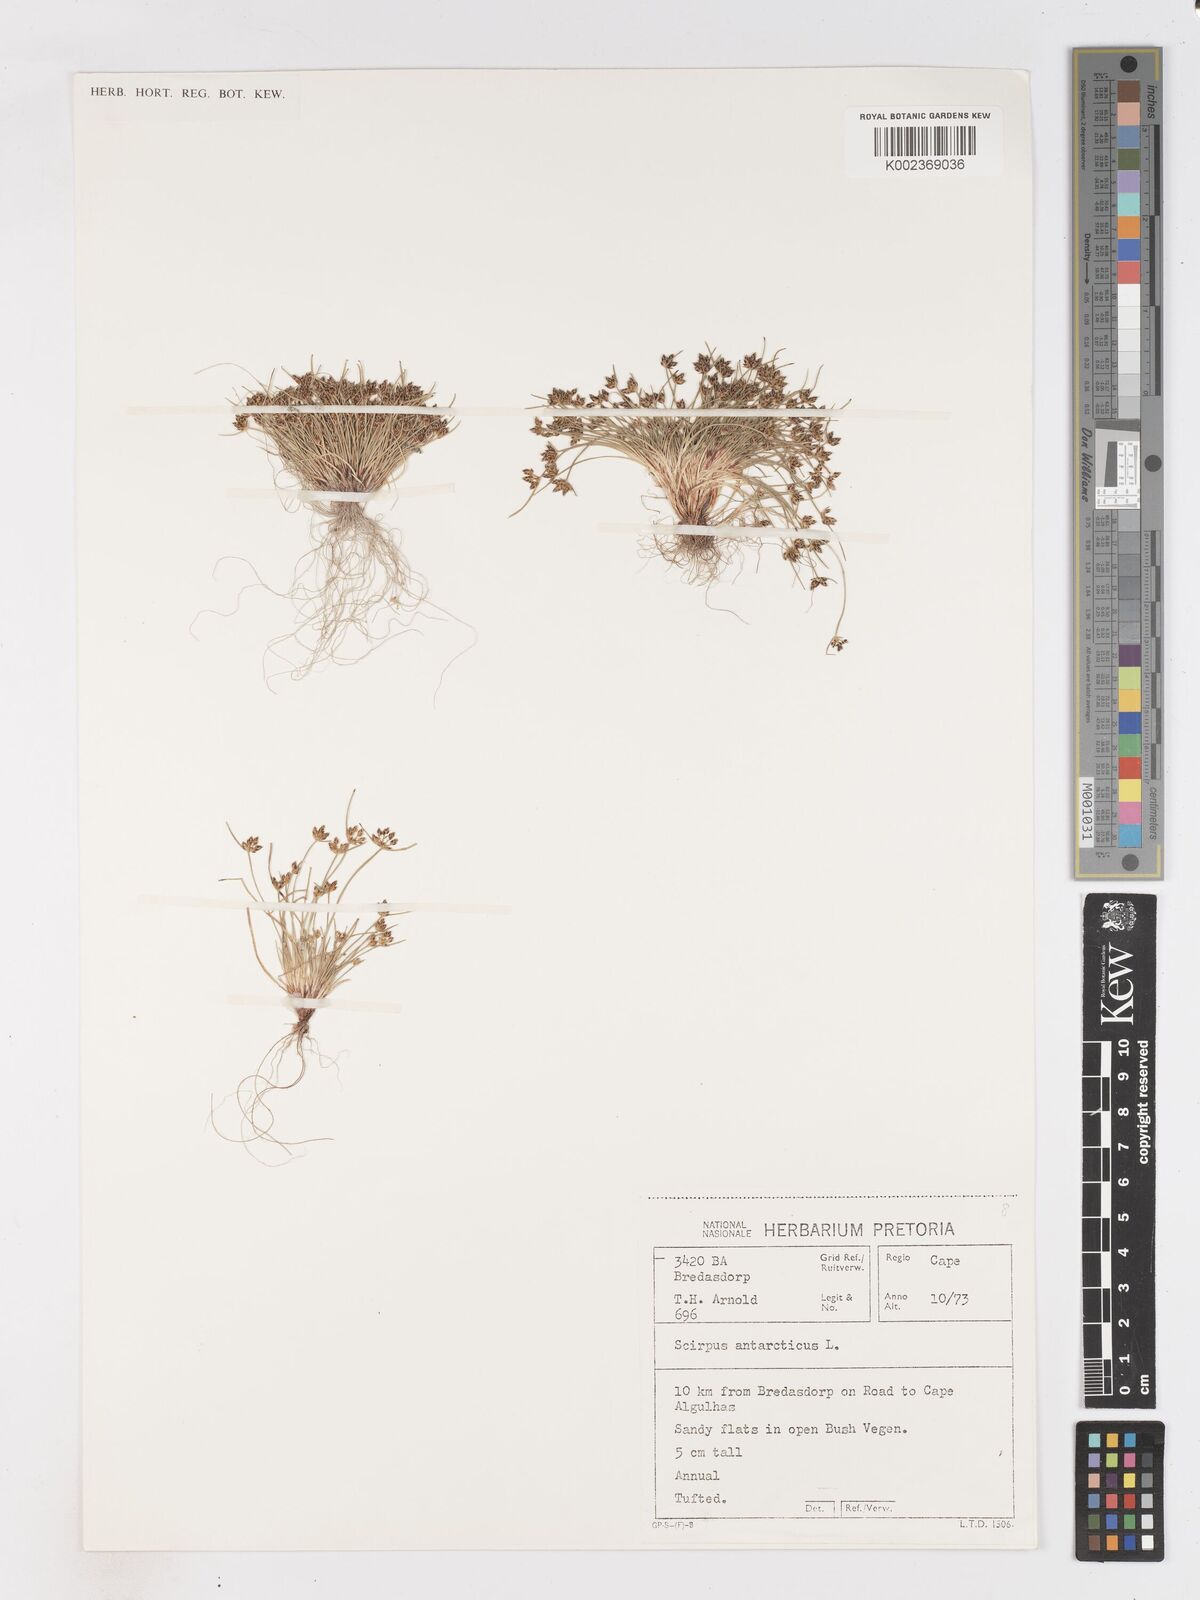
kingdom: Plantae
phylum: Tracheophyta
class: Liliopsida
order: Poales
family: Cyperaceae
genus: Isolepis
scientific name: Isolepis diabolica
